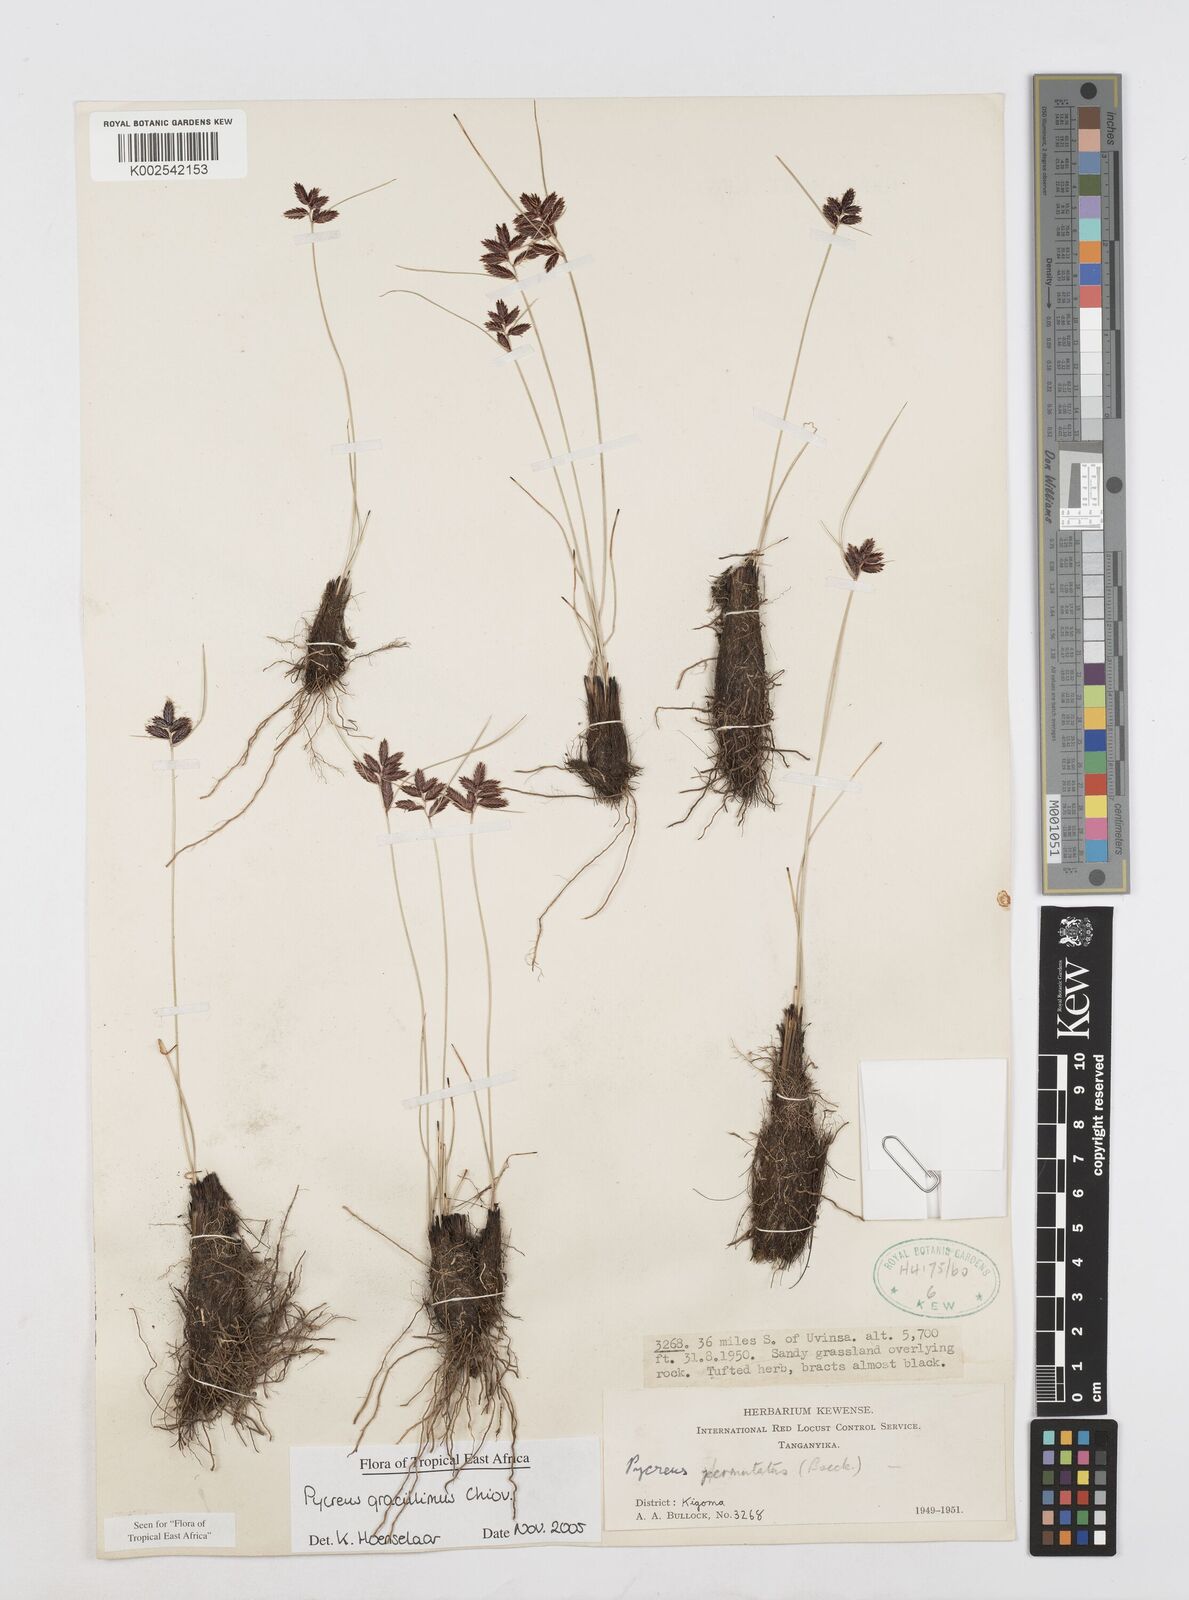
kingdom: Plantae
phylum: Tracheophyta
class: Liliopsida
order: Poales
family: Cyperaceae
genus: Cyperus
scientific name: Cyperus gracillimus
